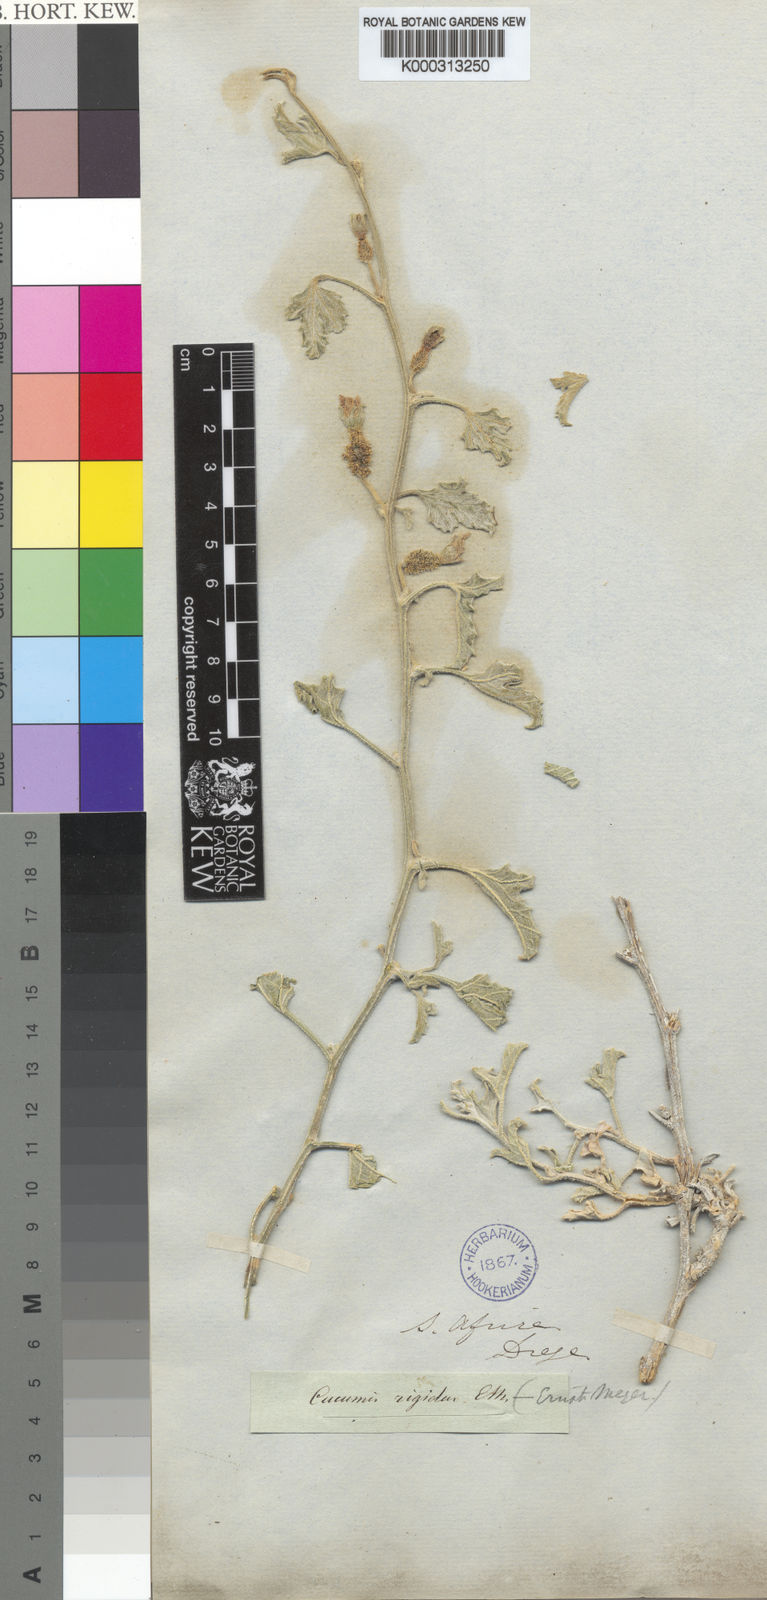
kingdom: Plantae
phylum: Tracheophyta
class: Magnoliopsida
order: Cucurbitales
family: Cucurbitaceae
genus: Cucumis
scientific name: Cucumis rigidus
